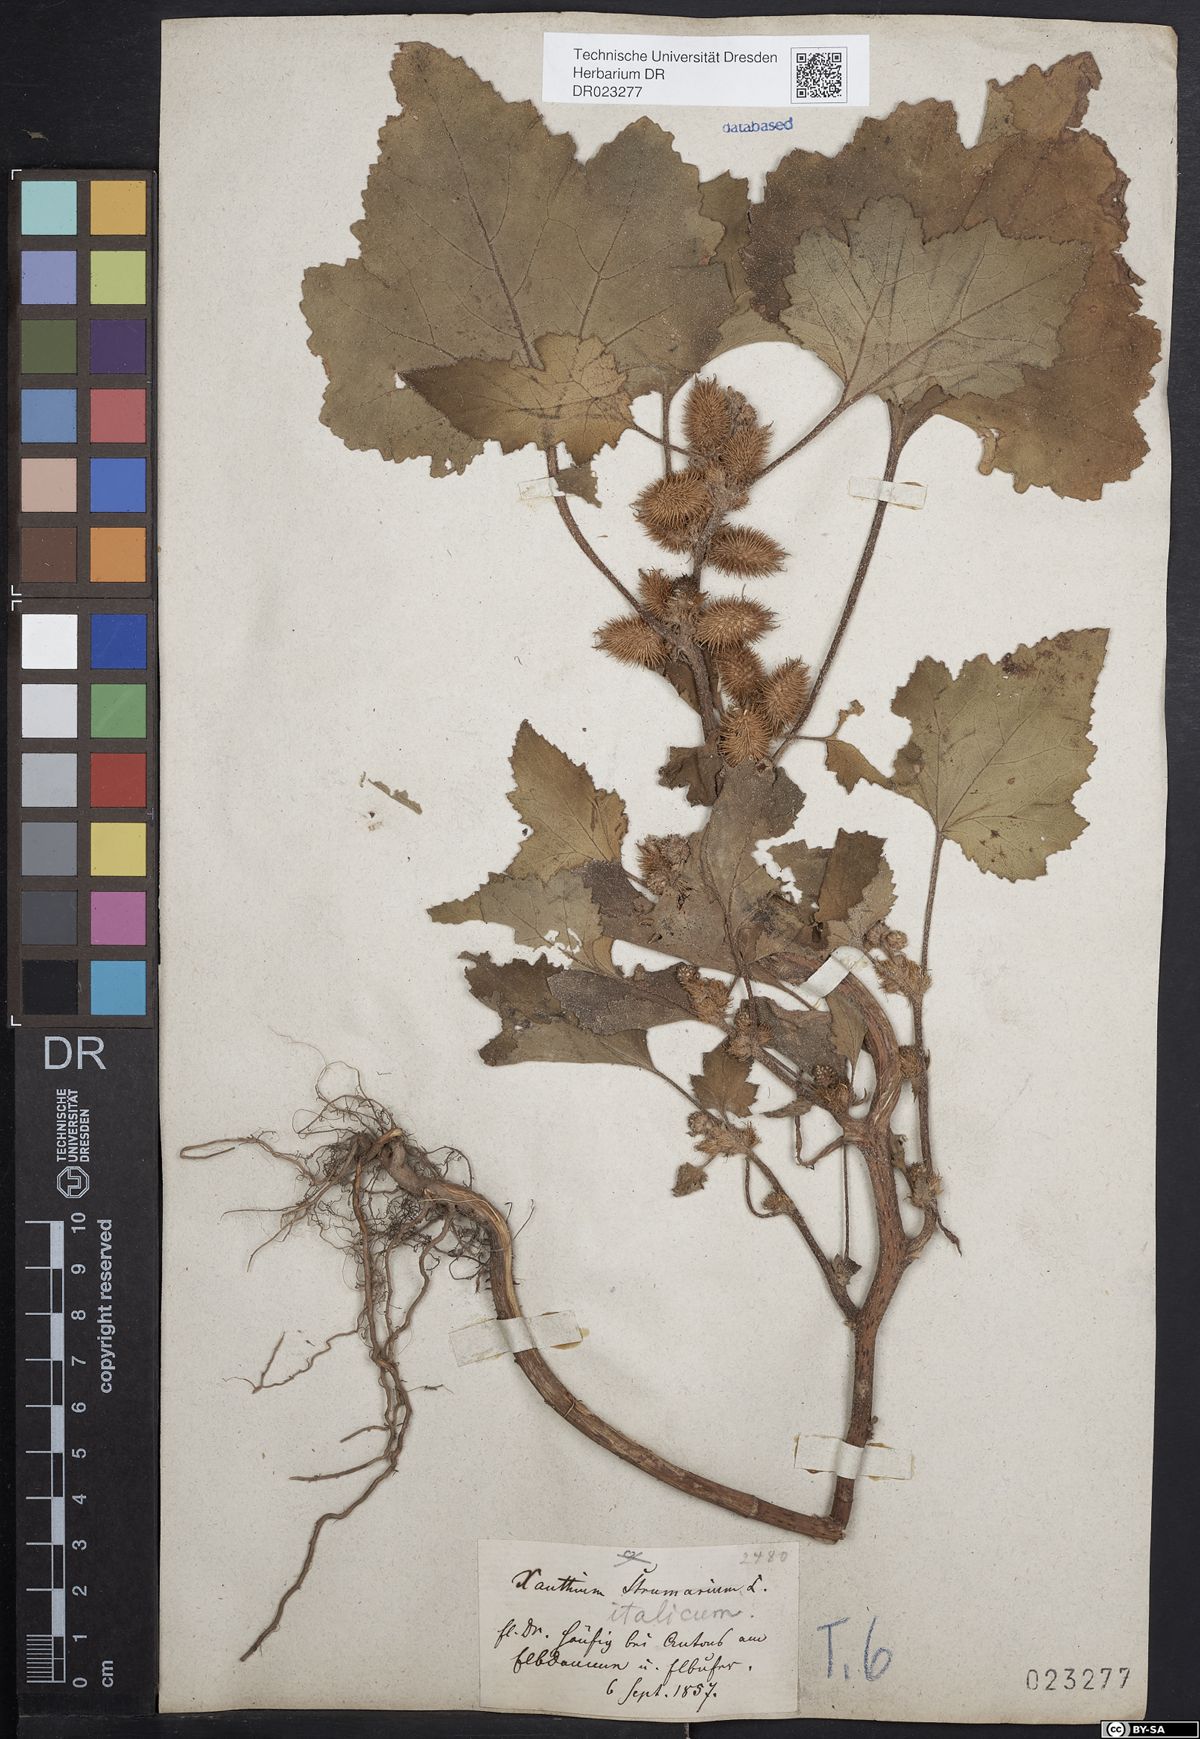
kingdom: Plantae
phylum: Tracheophyta
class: Magnoliopsida
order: Asterales
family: Asteraceae
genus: Xanthium
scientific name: Xanthium orientale
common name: Californian burr
